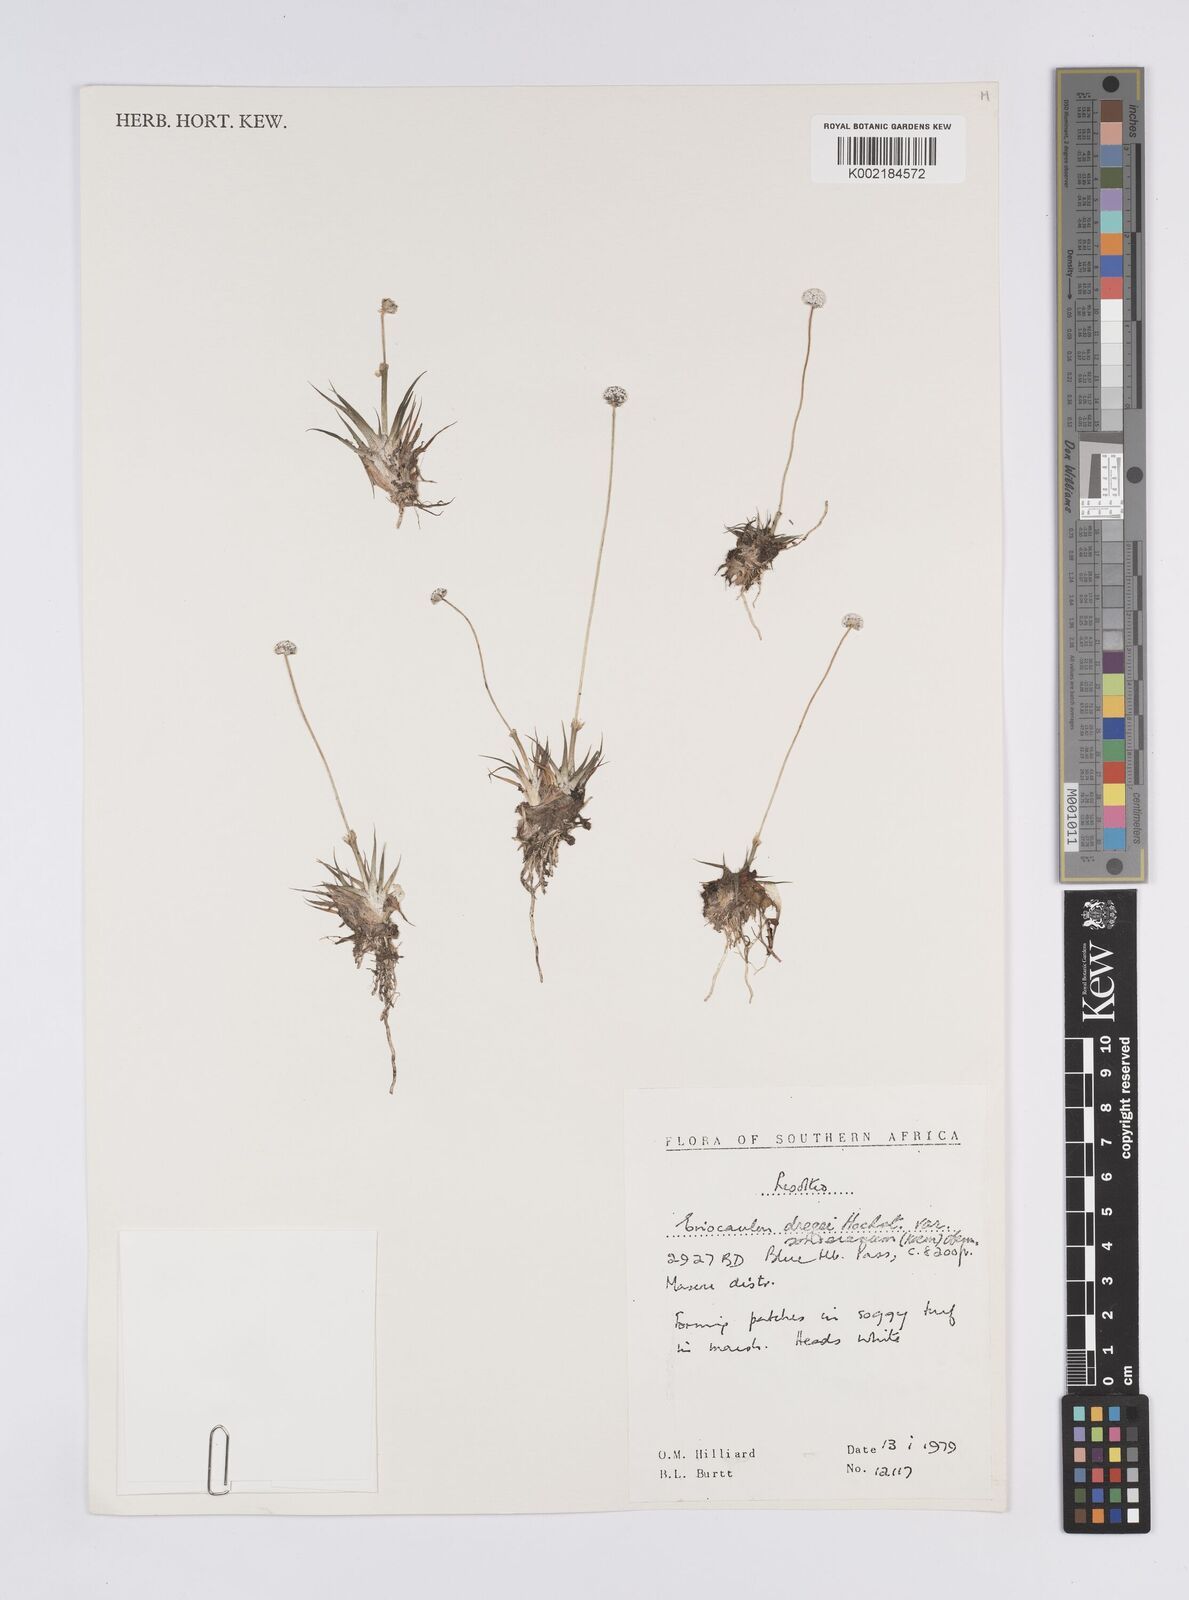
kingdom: Plantae
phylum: Tracheophyta
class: Liliopsida
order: Poales
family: Eriocaulaceae
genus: Eriocaulon
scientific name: Eriocaulon sonderianum
